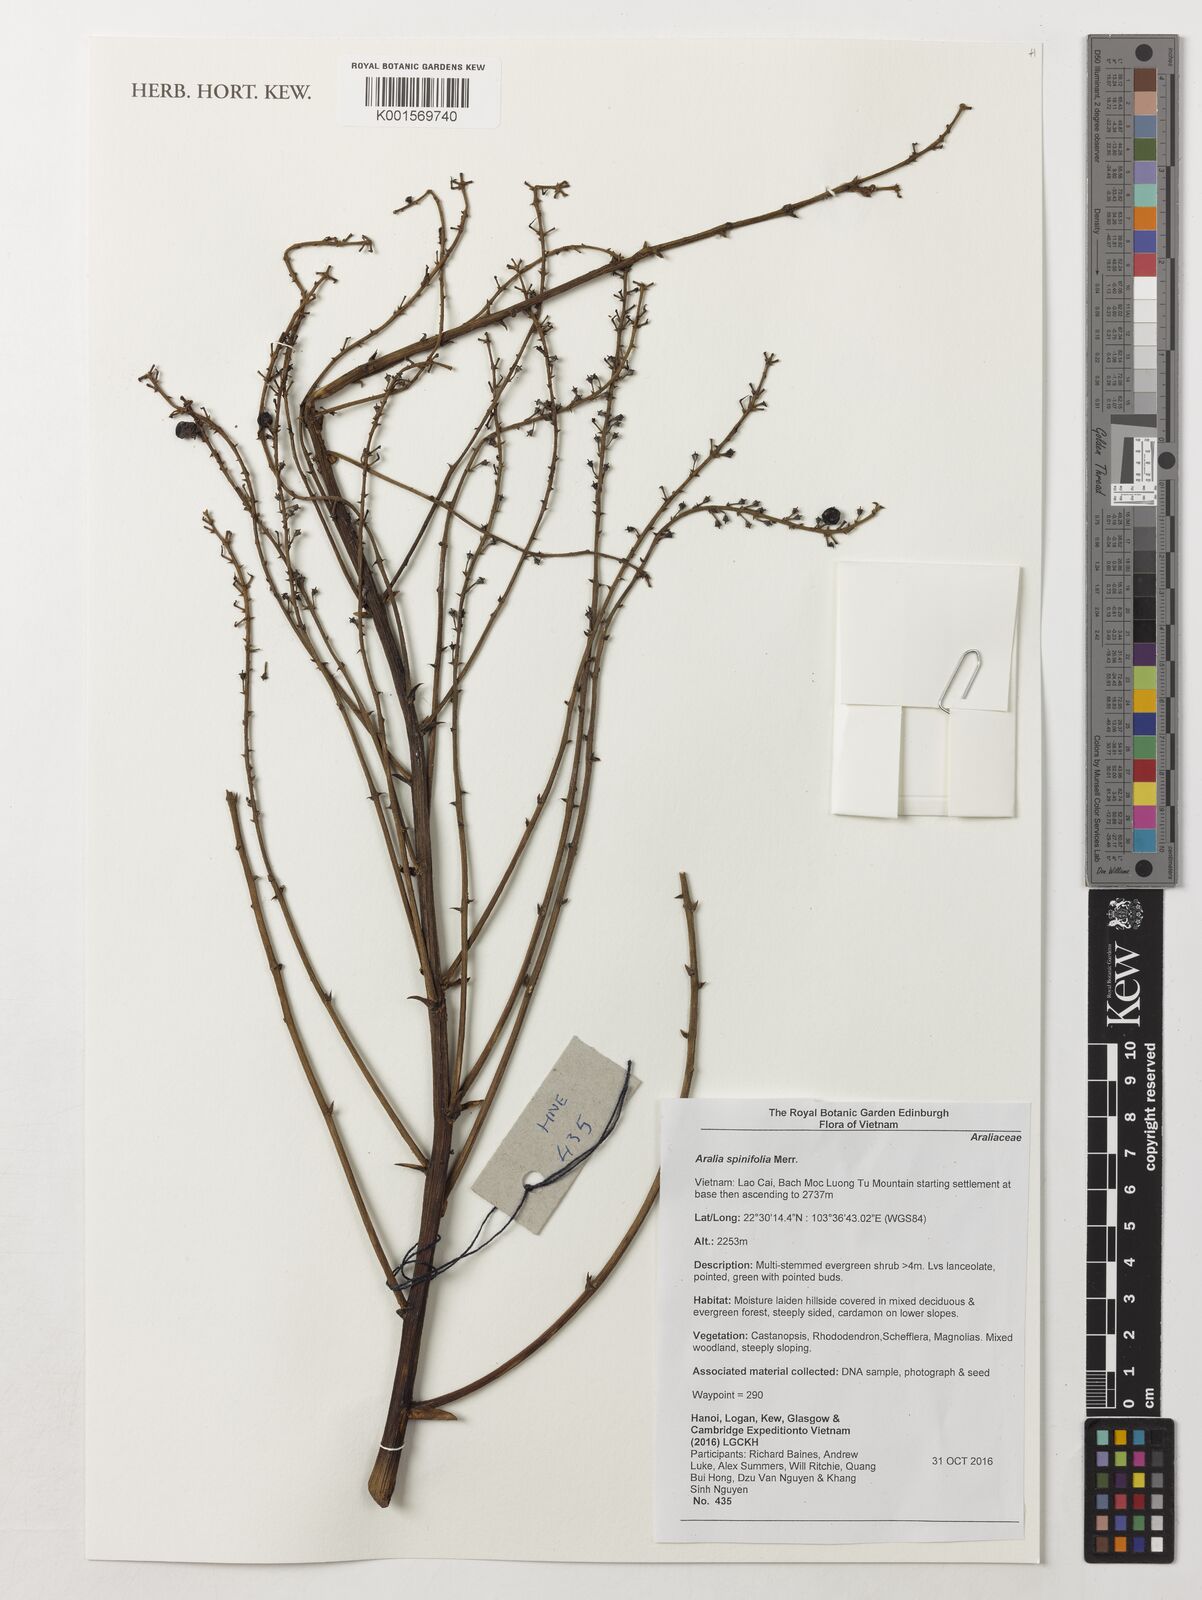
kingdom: Plantae
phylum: Tracheophyta
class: Magnoliopsida
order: Apiales
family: Araliaceae
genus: Aralia
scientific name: Aralia spinifolia
